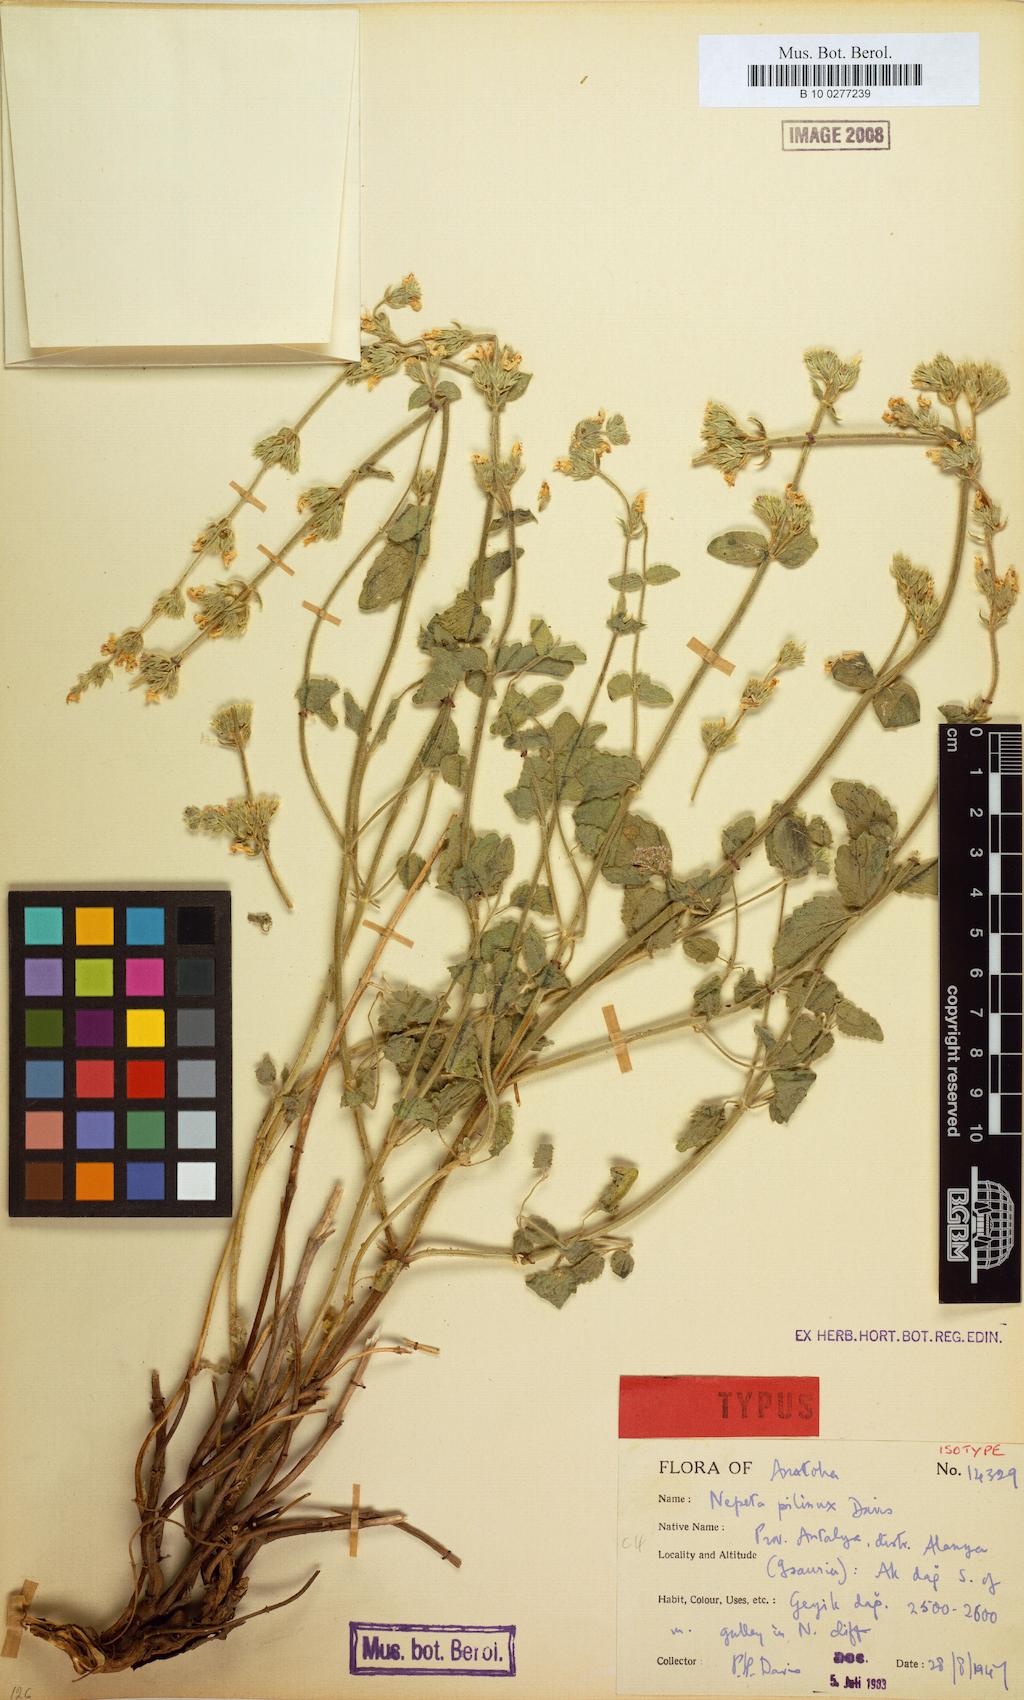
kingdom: Plantae
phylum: Tracheophyta
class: Magnoliopsida
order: Lamiales
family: Lamiaceae
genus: Nepeta
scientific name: Nepeta pilinux
